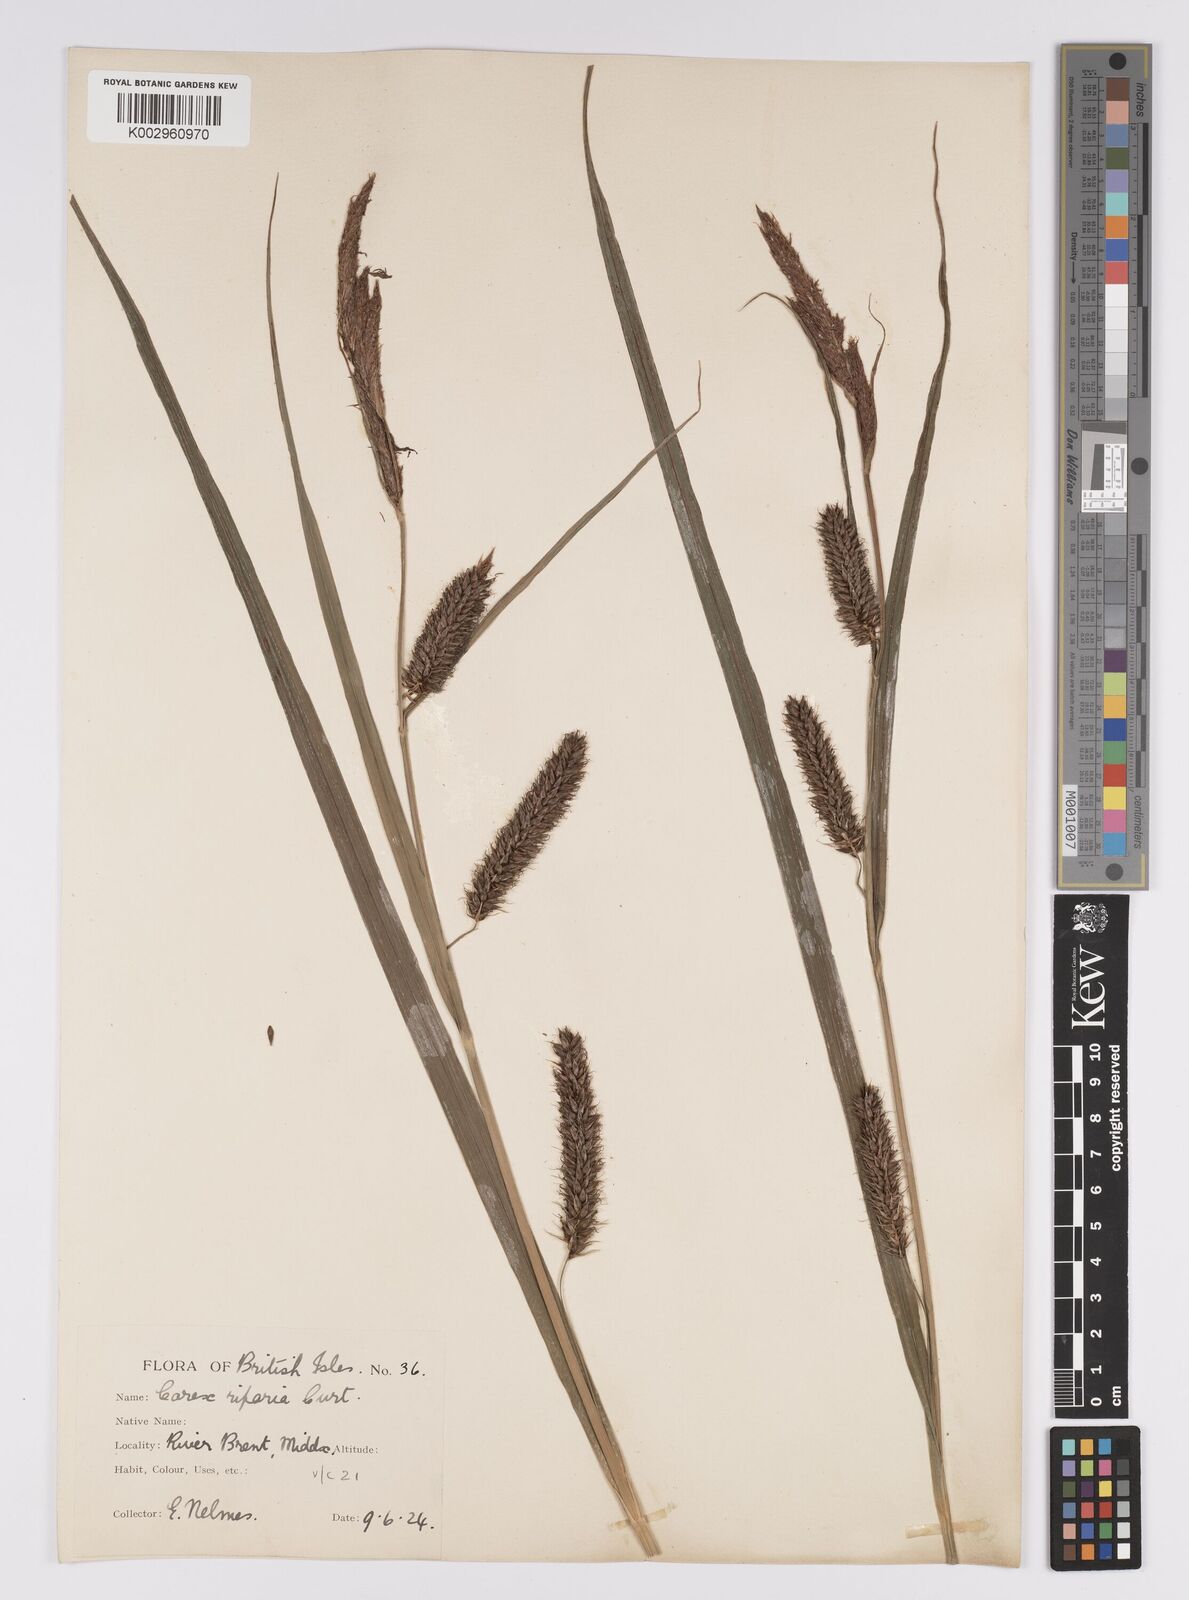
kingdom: Plantae
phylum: Tracheophyta
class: Liliopsida
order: Poales
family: Cyperaceae
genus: Carex
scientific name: Carex riparia
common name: Greater pond-sedge
